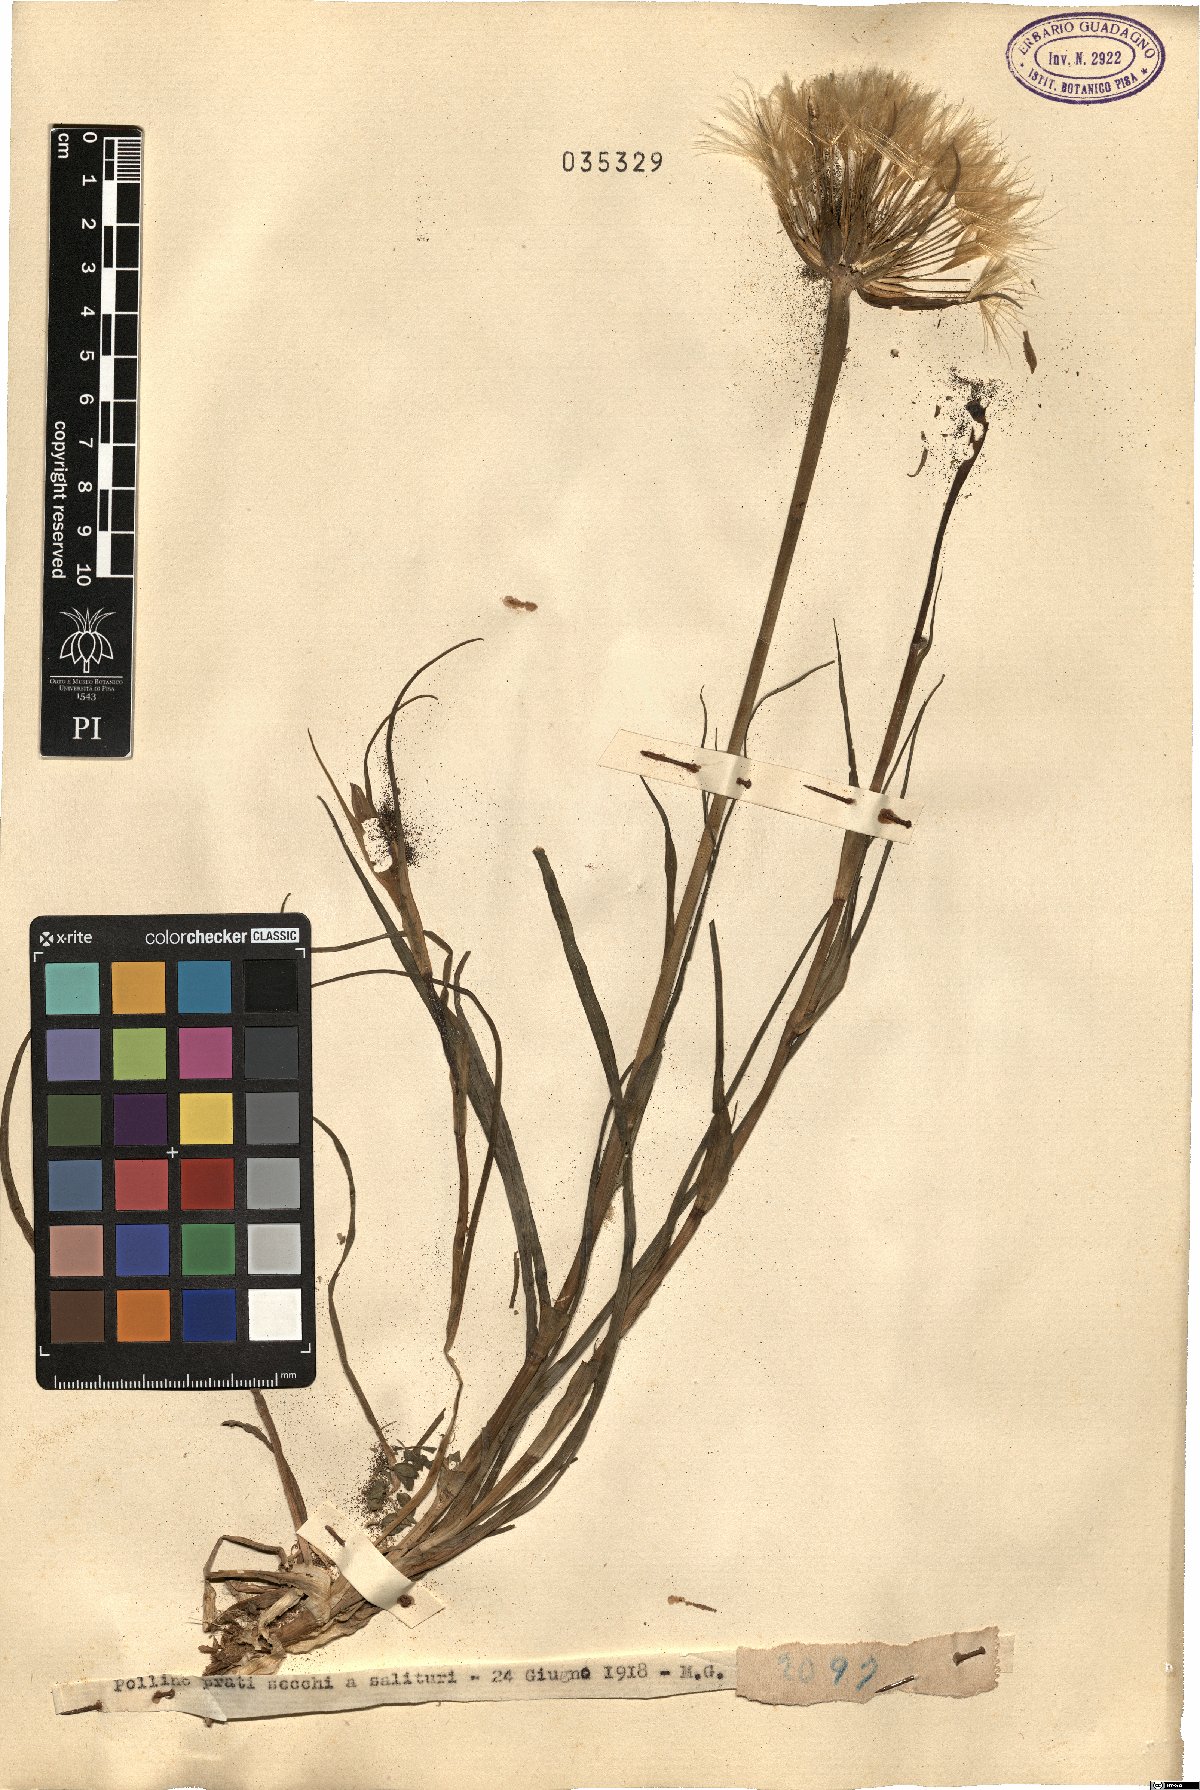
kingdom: Plantae
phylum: Tracheophyta
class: Magnoliopsida
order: Asterales
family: Asteraceae
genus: Geropogon
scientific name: Geropogon
